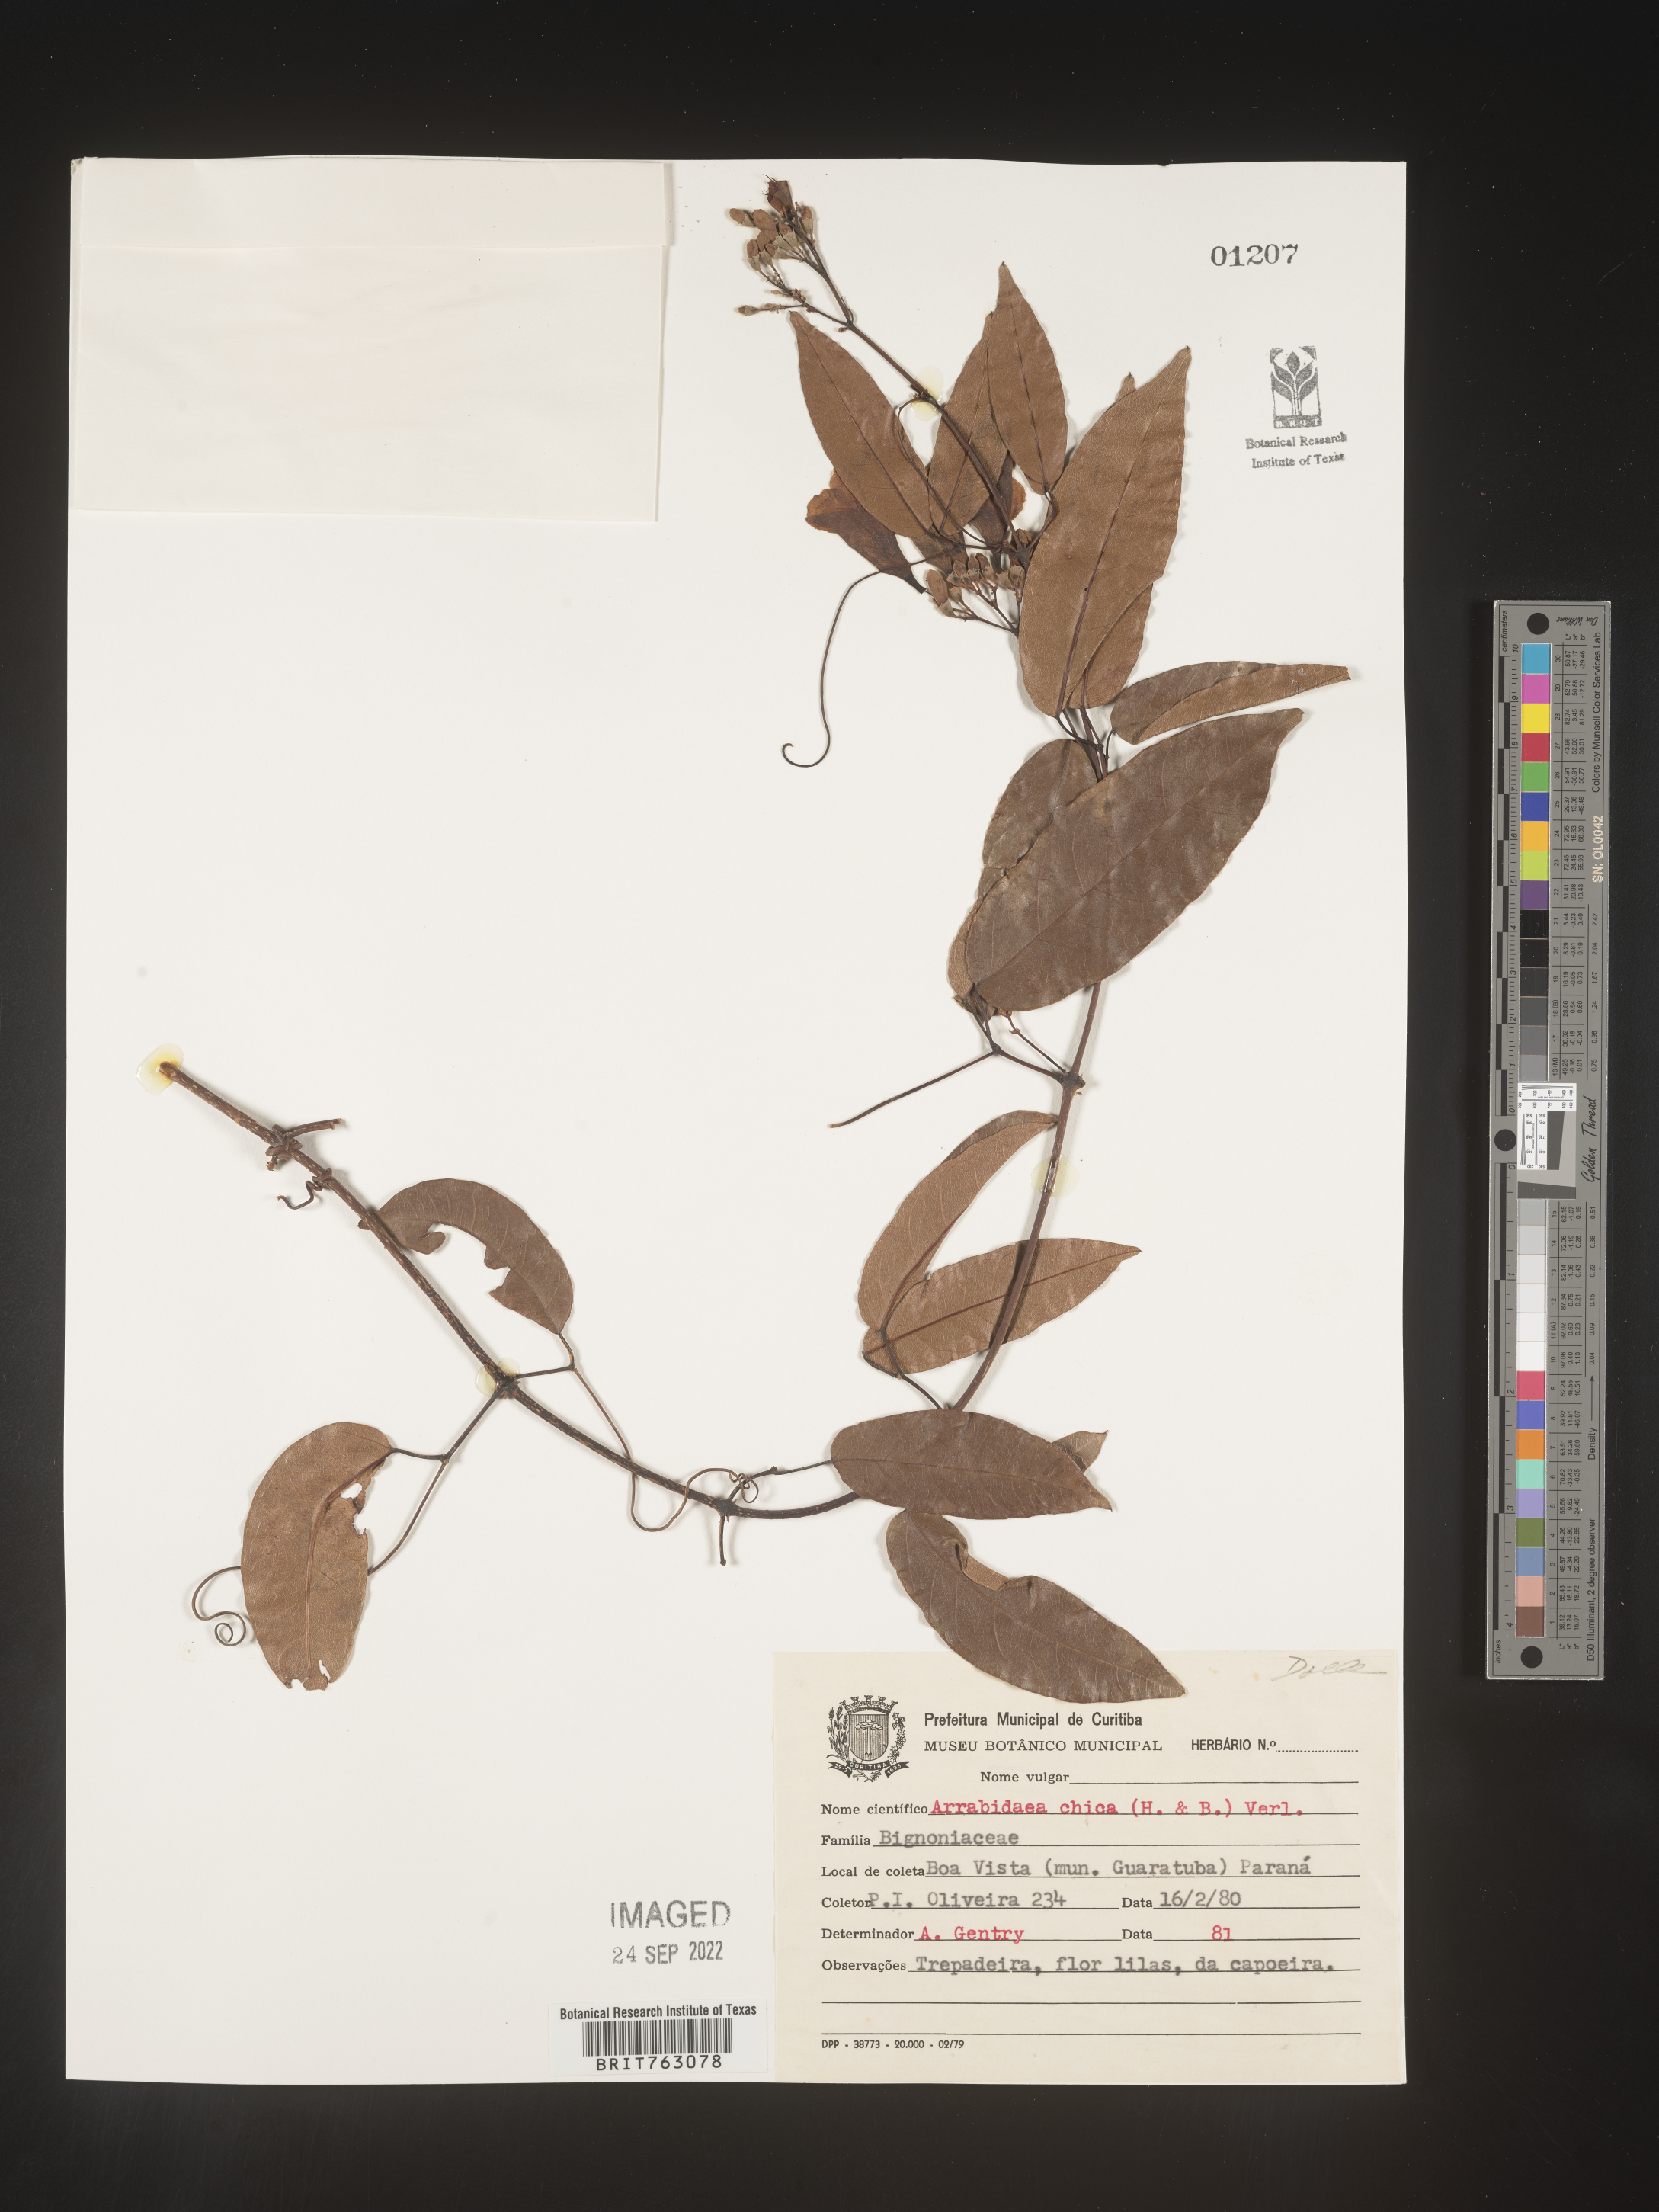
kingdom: Plantae
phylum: Tracheophyta
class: Magnoliopsida
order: Rosales
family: Rhamnaceae
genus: Arrabidaea
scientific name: Arrabidaea
